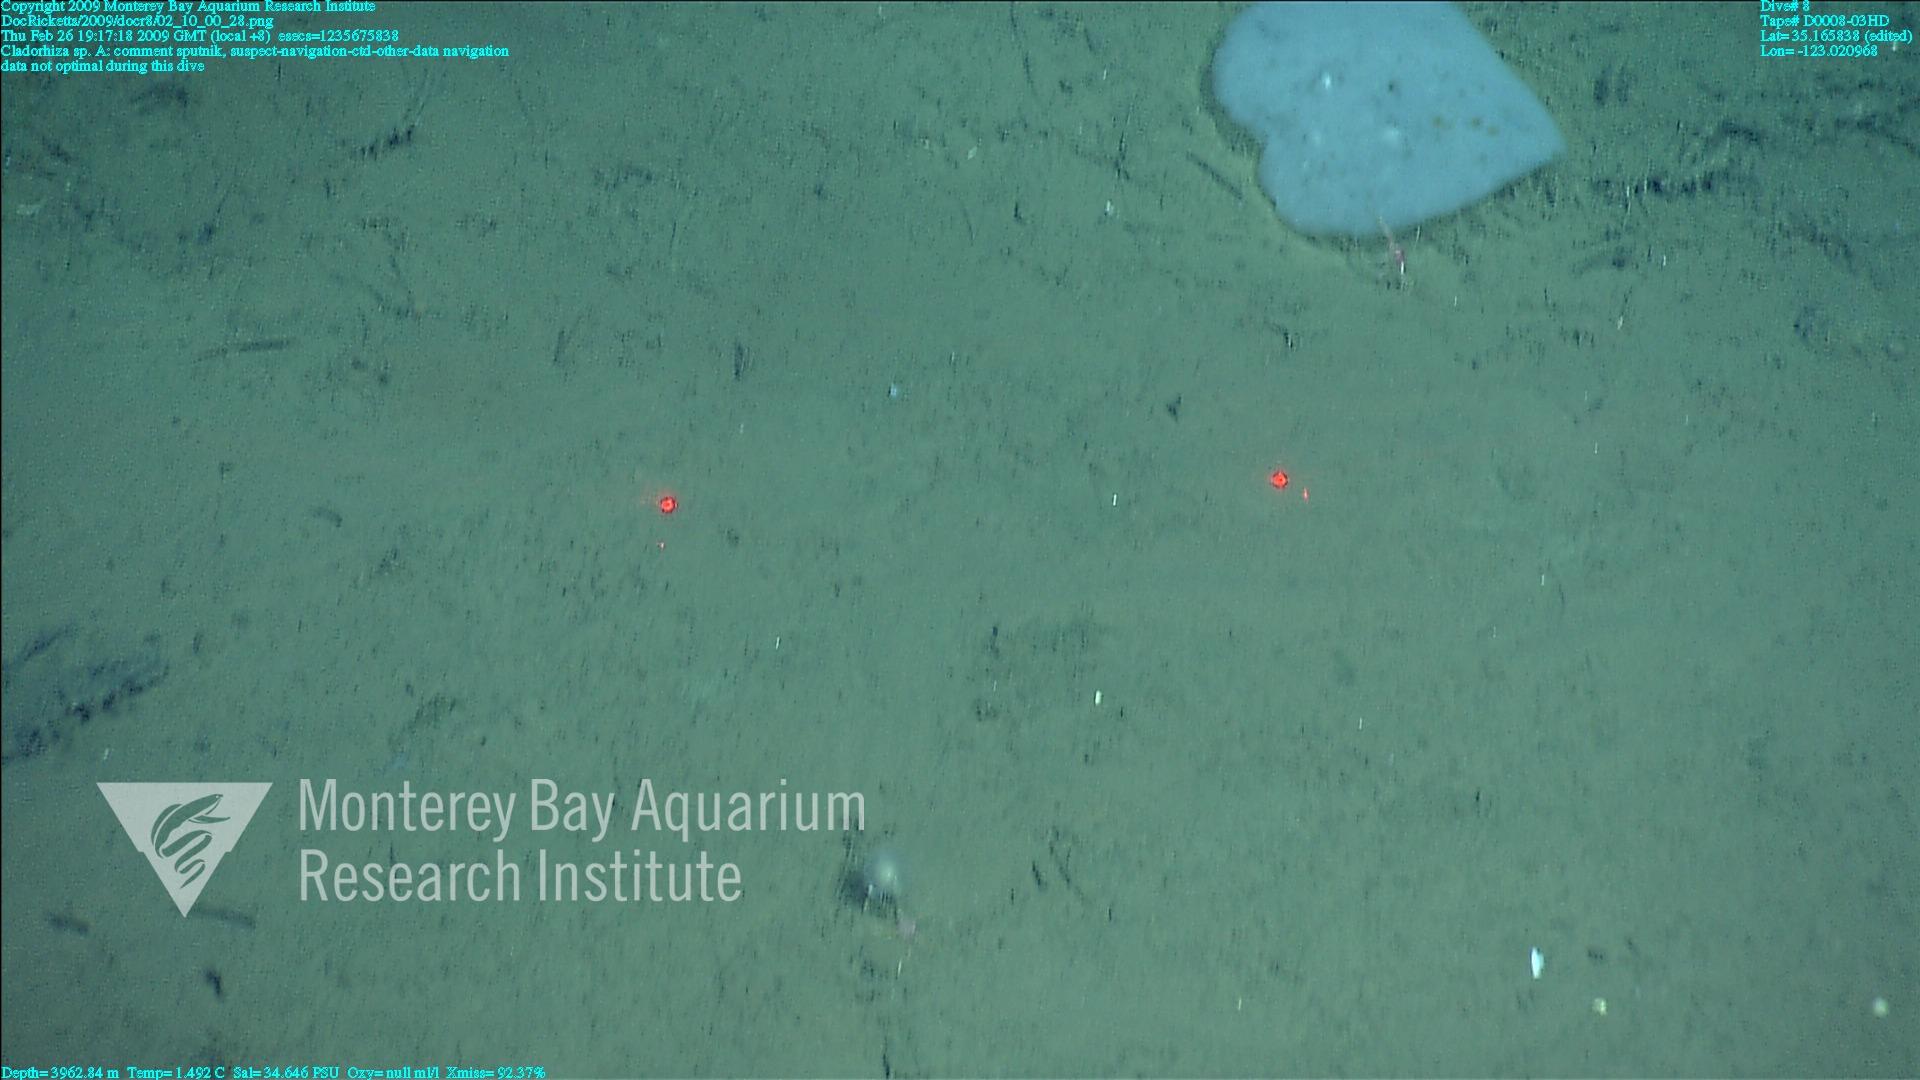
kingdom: Animalia
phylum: Porifera
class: Demospongiae
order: Poecilosclerida
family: Cladorhizidae
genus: Cladorhiza
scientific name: Cladorhiza
